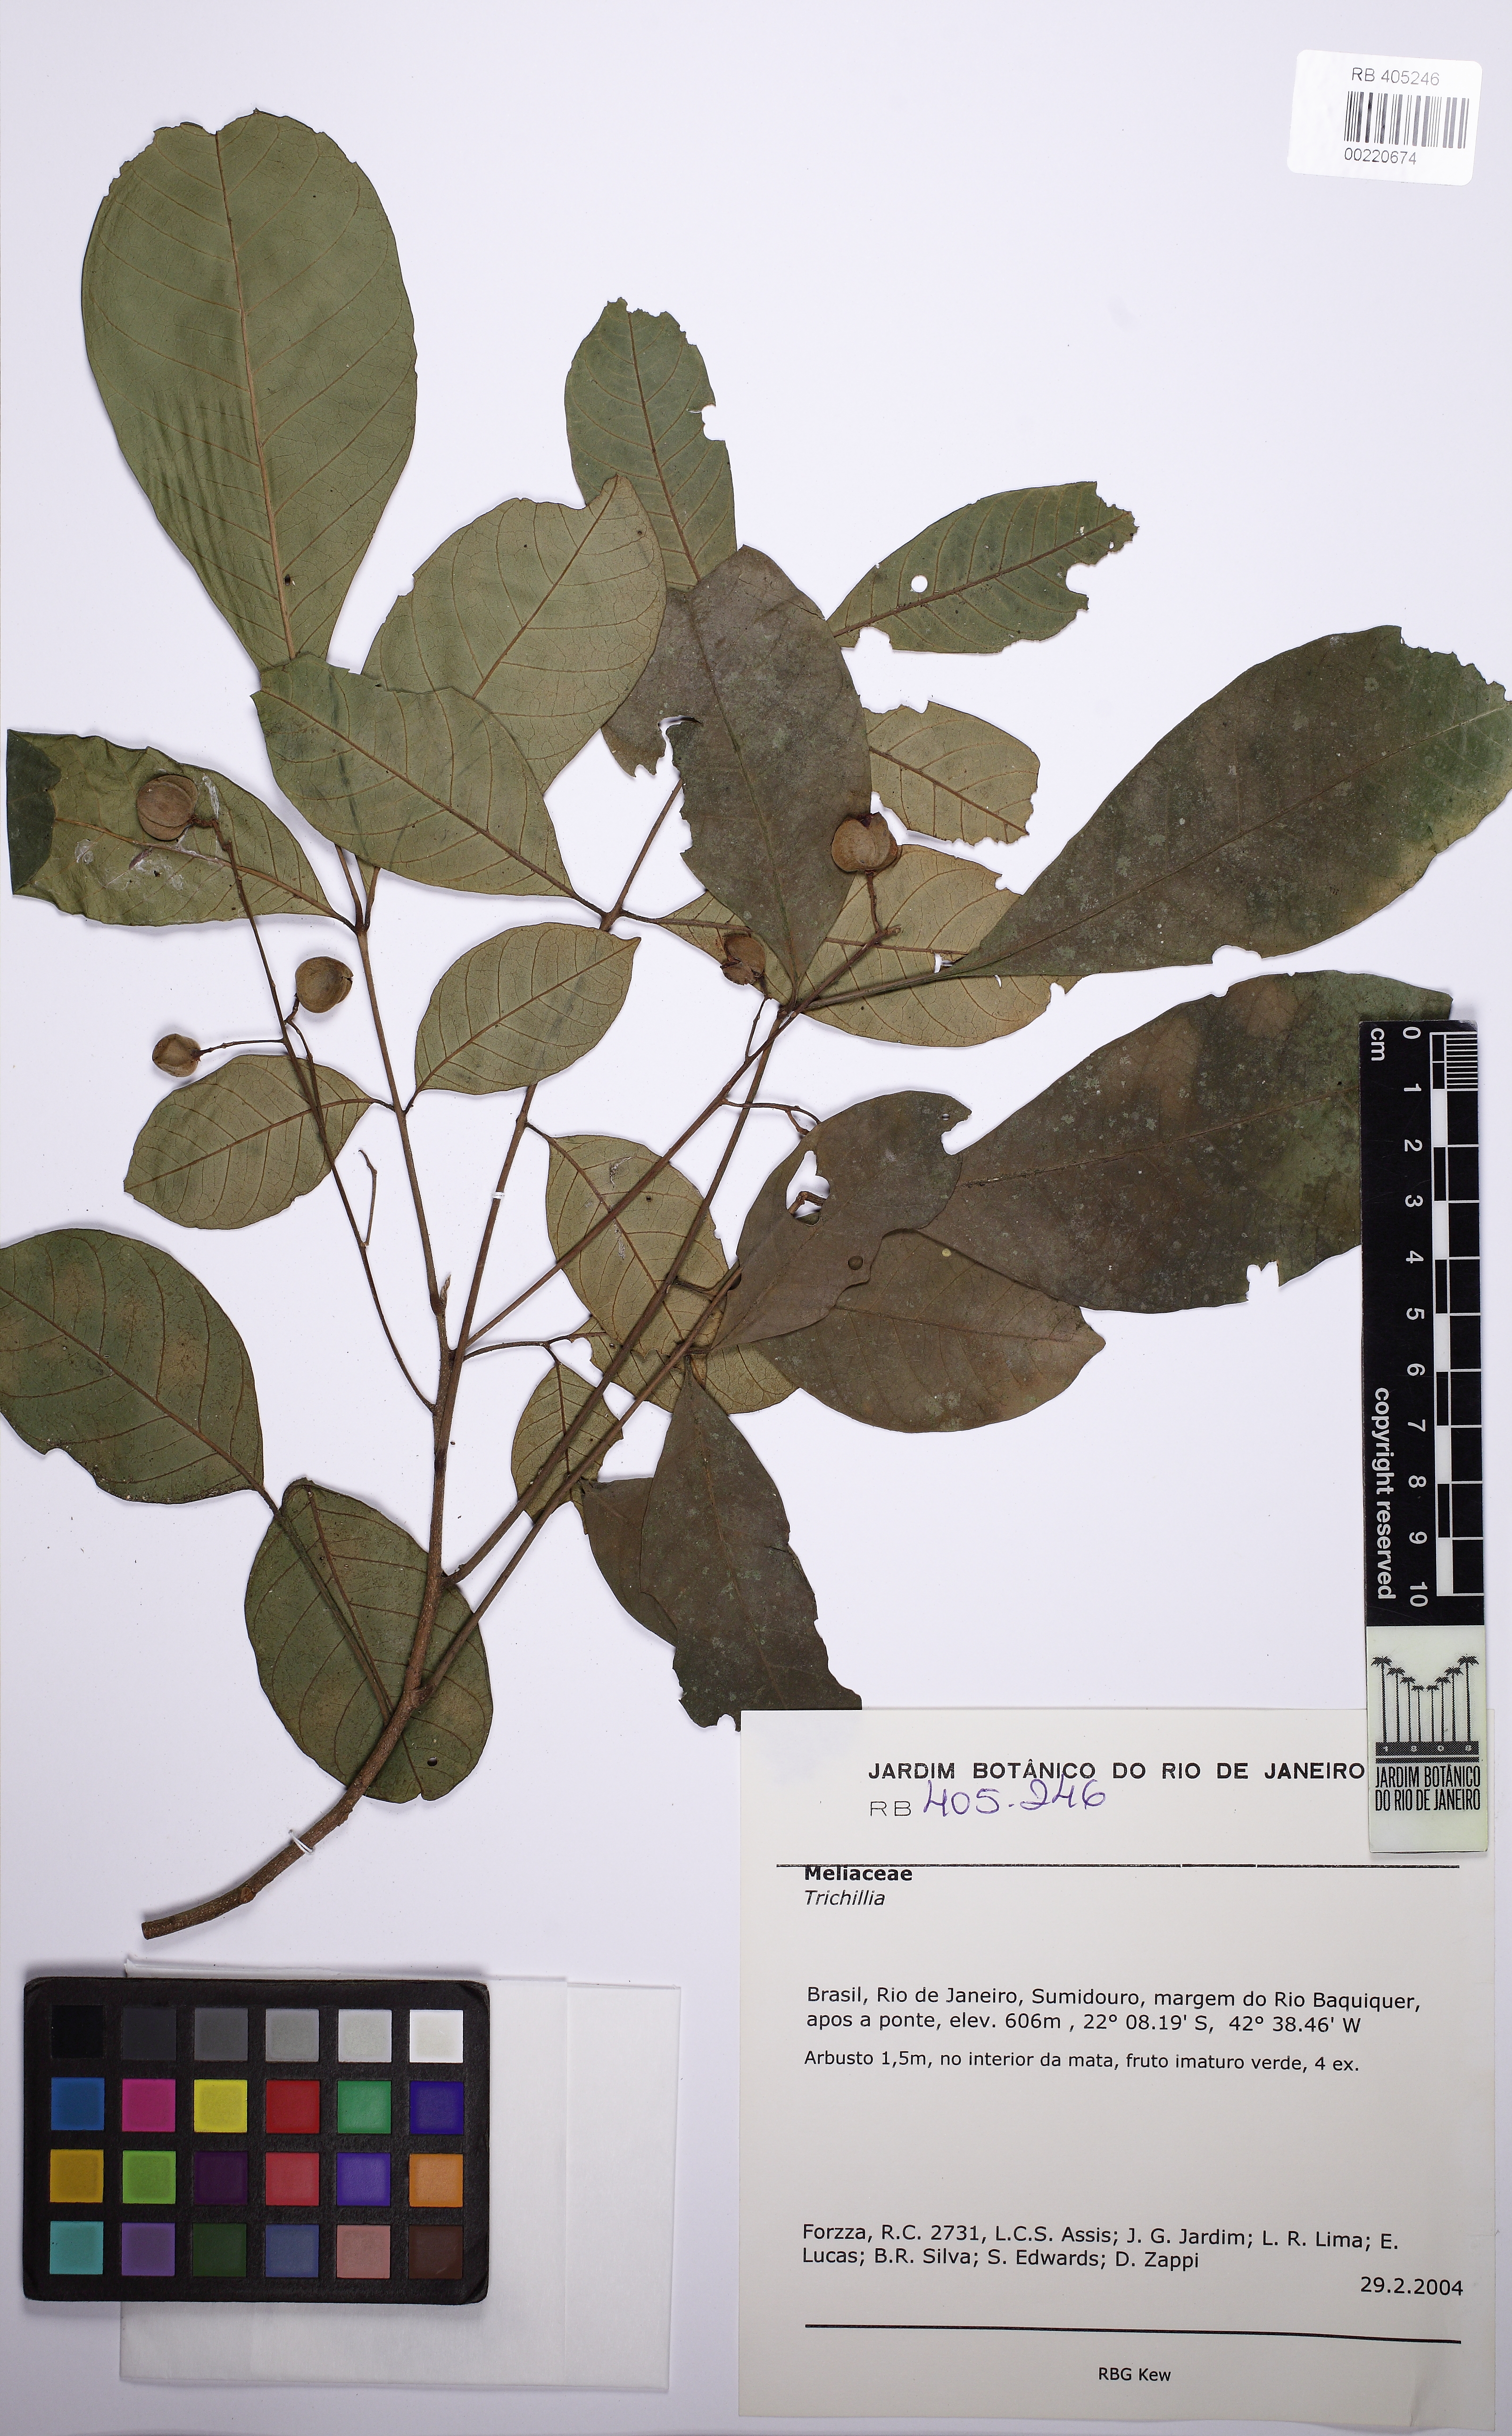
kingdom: Plantae
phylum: Tracheophyta
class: Magnoliopsida
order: Sapindales
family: Meliaceae
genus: Trichilia
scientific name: Trichilia pallens
